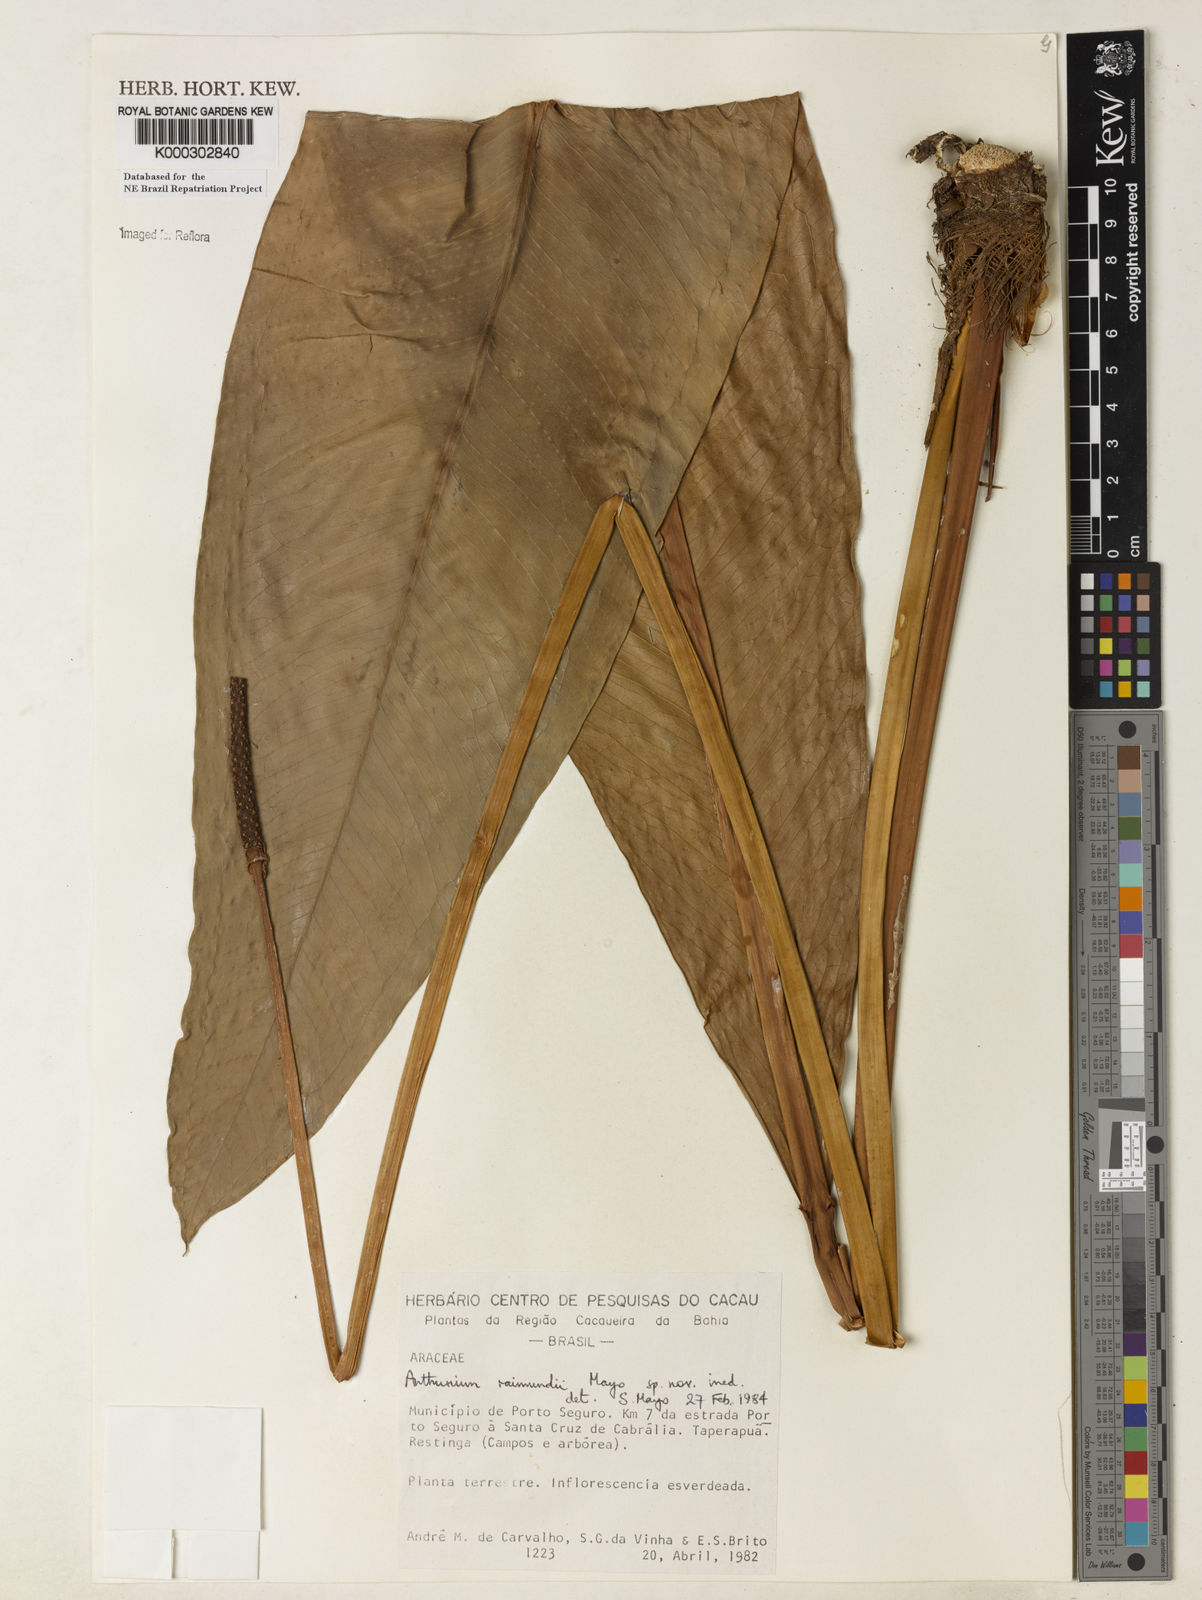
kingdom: Plantae
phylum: Tracheophyta
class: Liliopsida
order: Alismatales
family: Araceae
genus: Anthurium
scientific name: Anthurium raimundii
